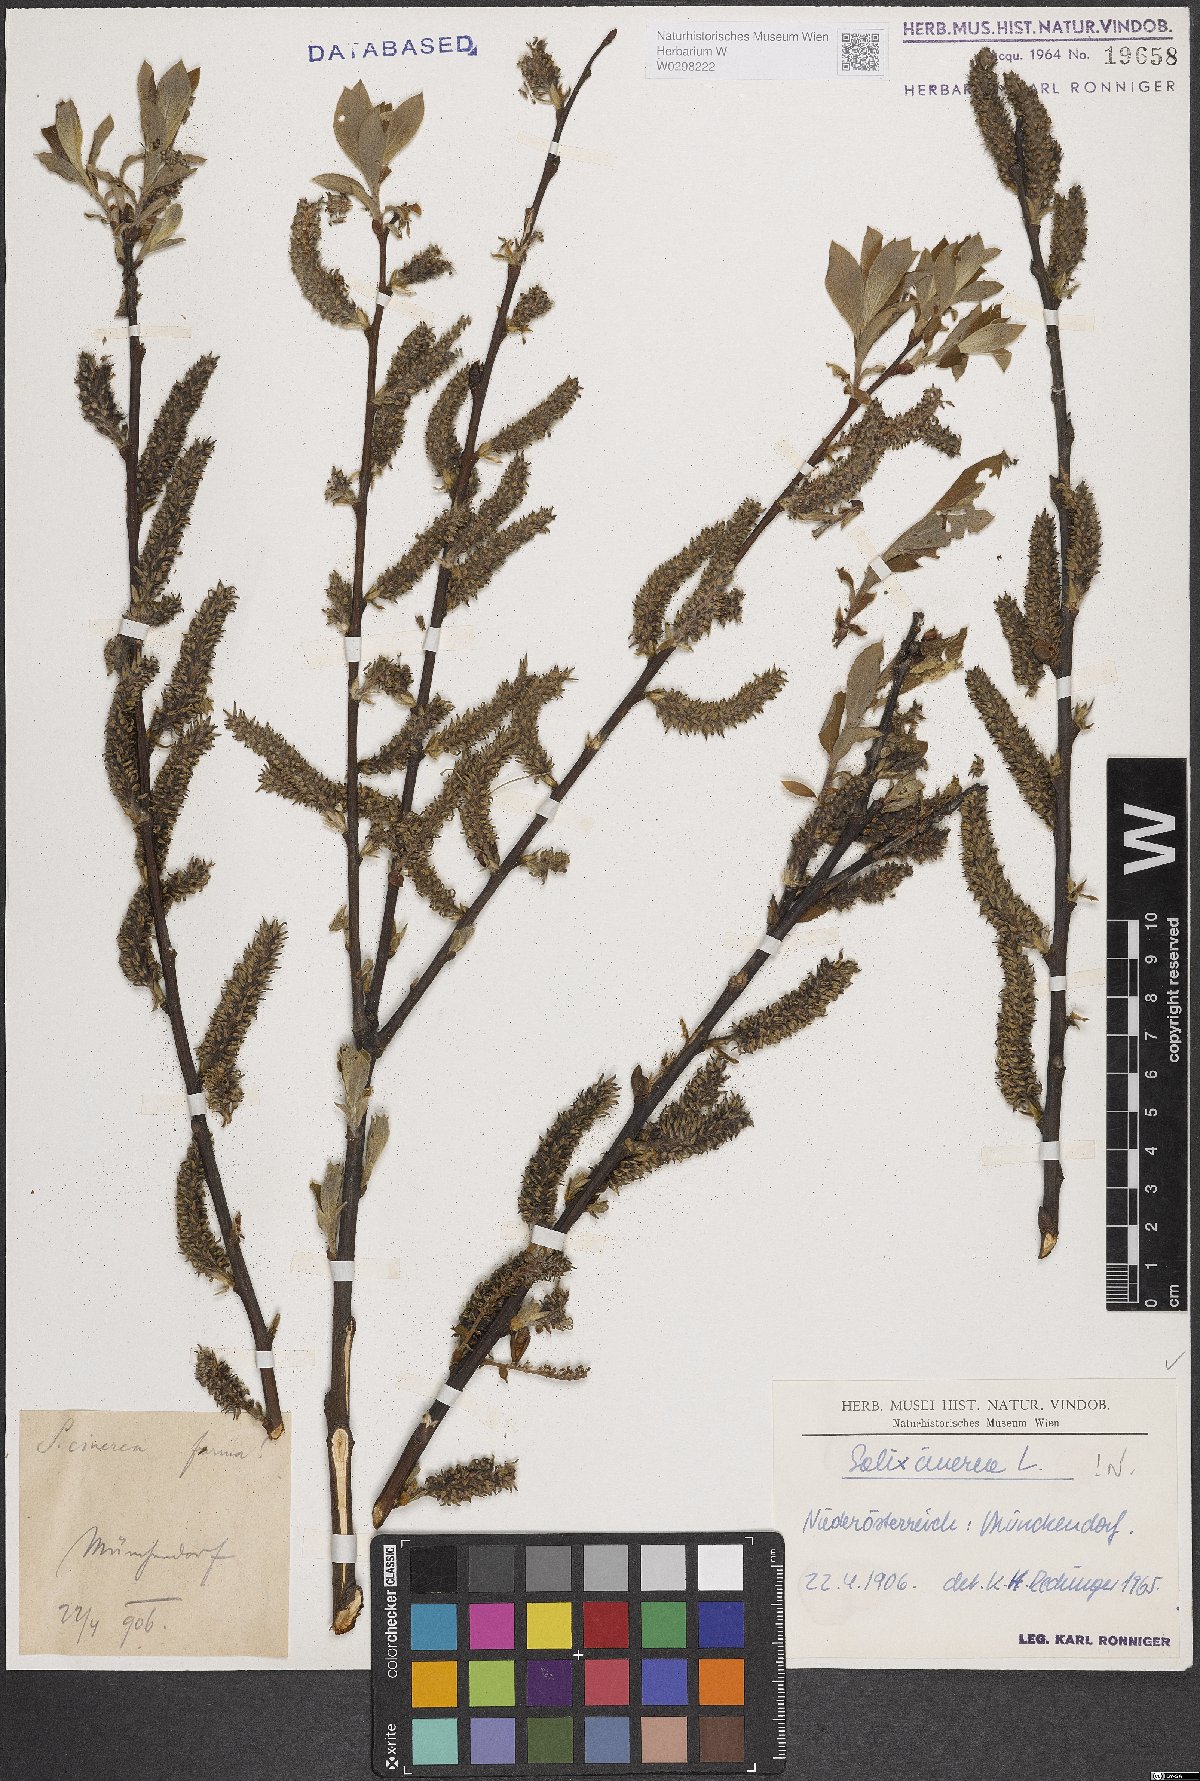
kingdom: Plantae
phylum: Tracheophyta
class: Magnoliopsida
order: Malpighiales
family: Salicaceae
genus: Salix
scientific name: Salix cinerea
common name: Common sallow
